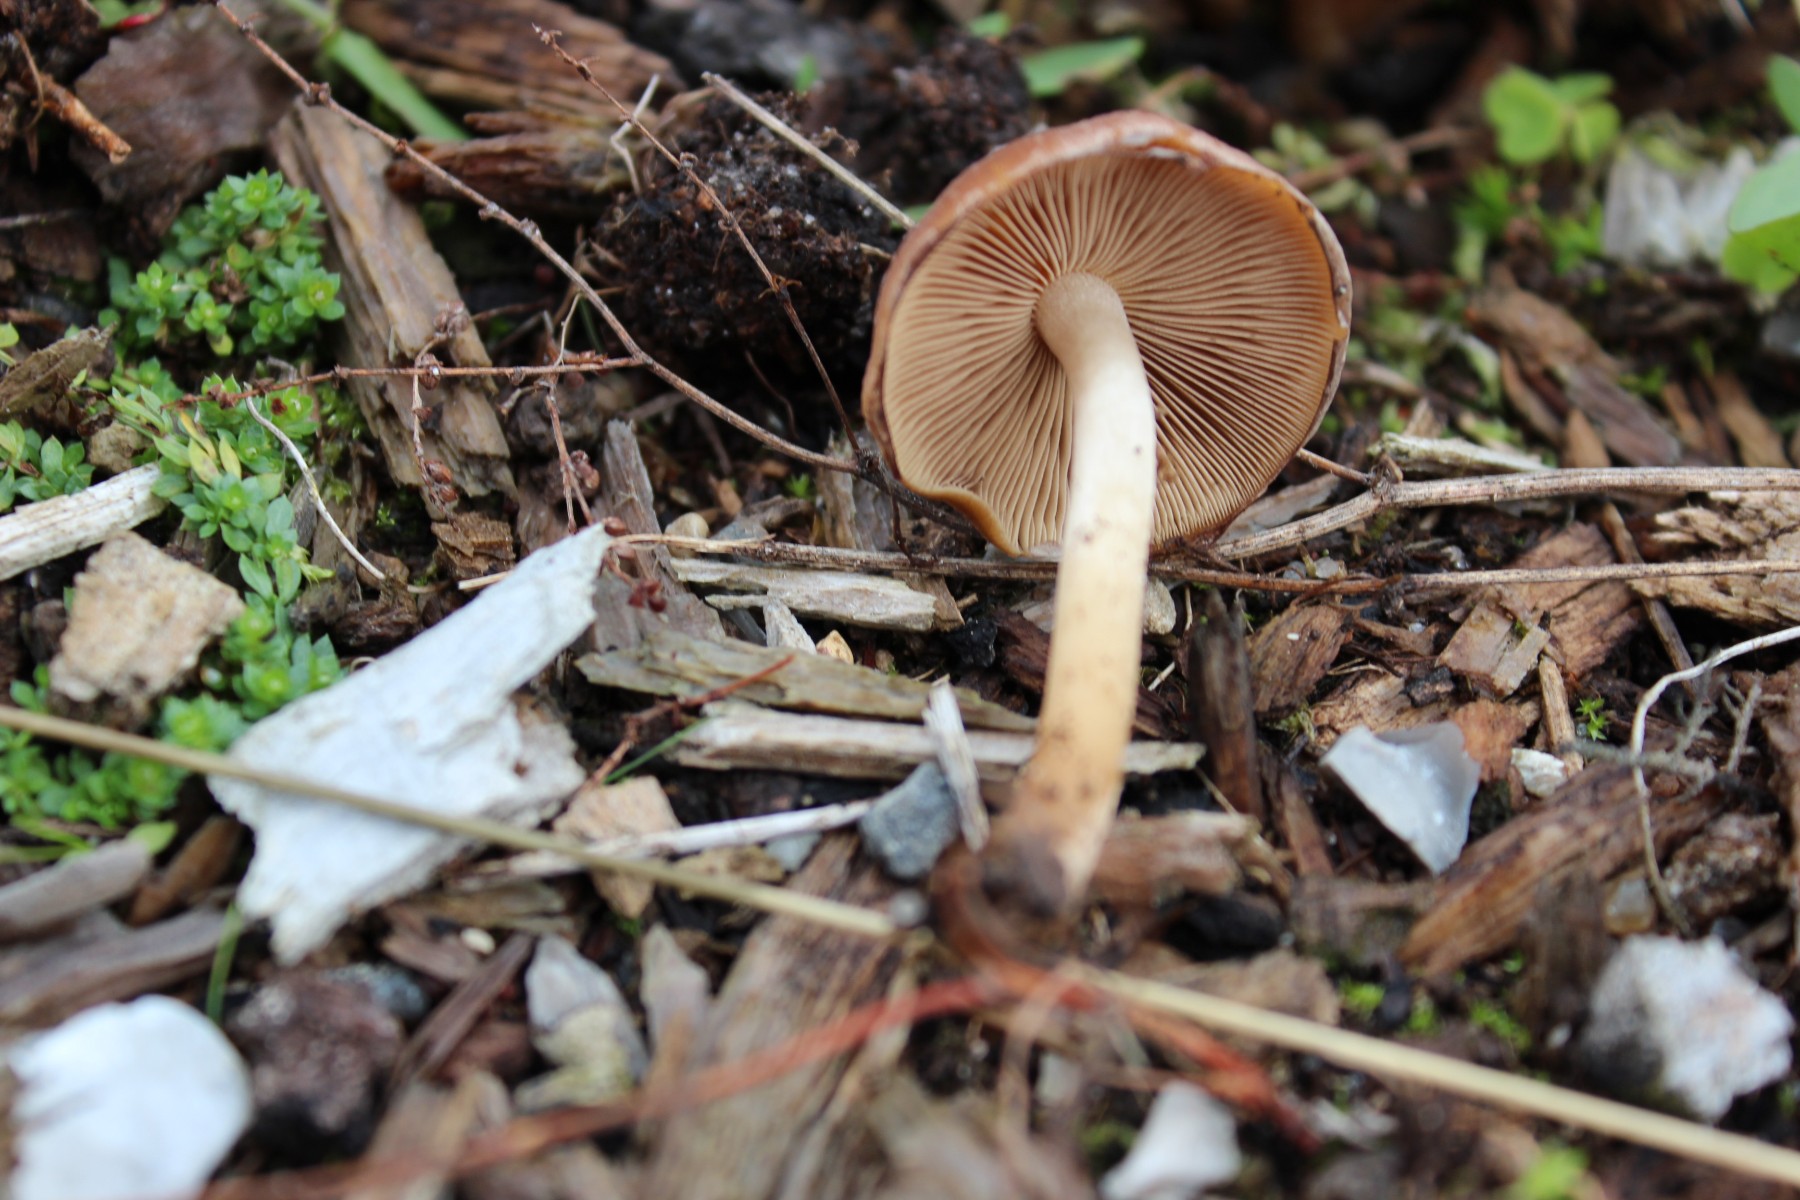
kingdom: Fungi
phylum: Basidiomycota
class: Agaricomycetes
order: Agaricales
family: Psathyrellaceae
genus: Psathyrella
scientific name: Psathyrella piluliformis
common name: lysstokket mørkhat
